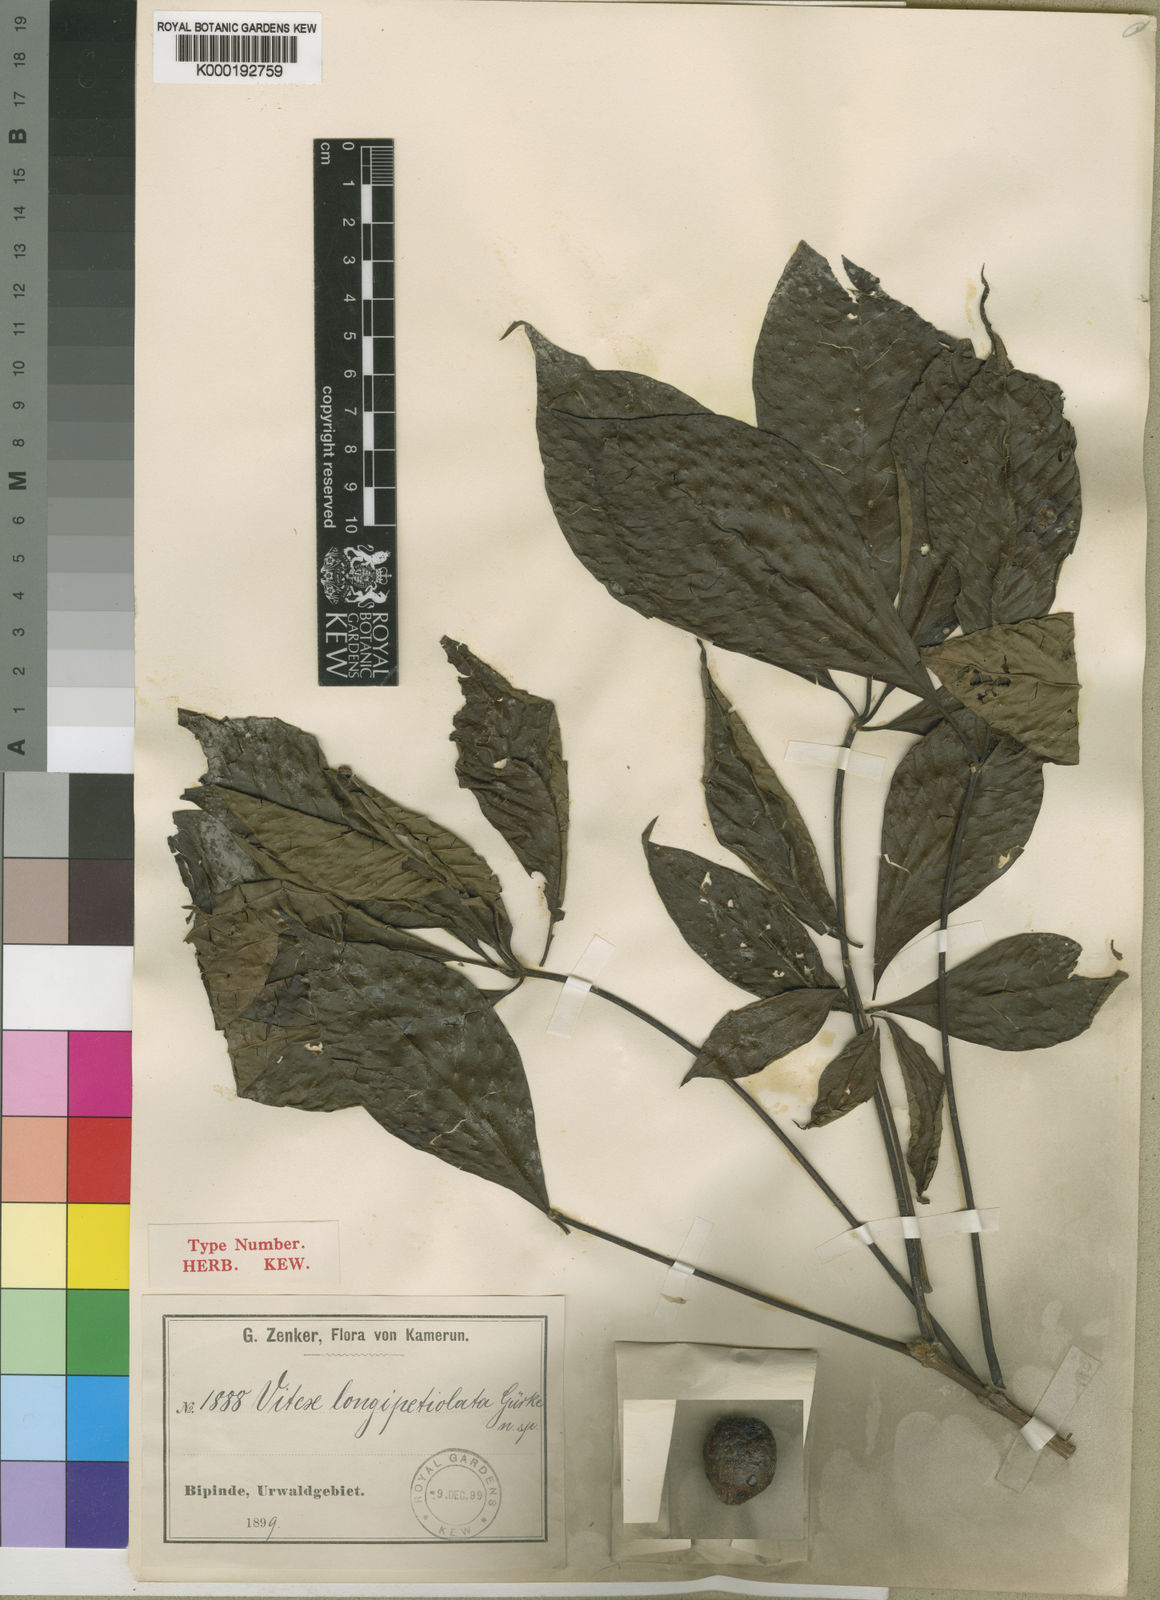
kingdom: Plantae
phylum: Tracheophyta
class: Magnoliopsida
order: Lamiales
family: Lamiaceae
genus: Vitex
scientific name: Vitex rivularis
